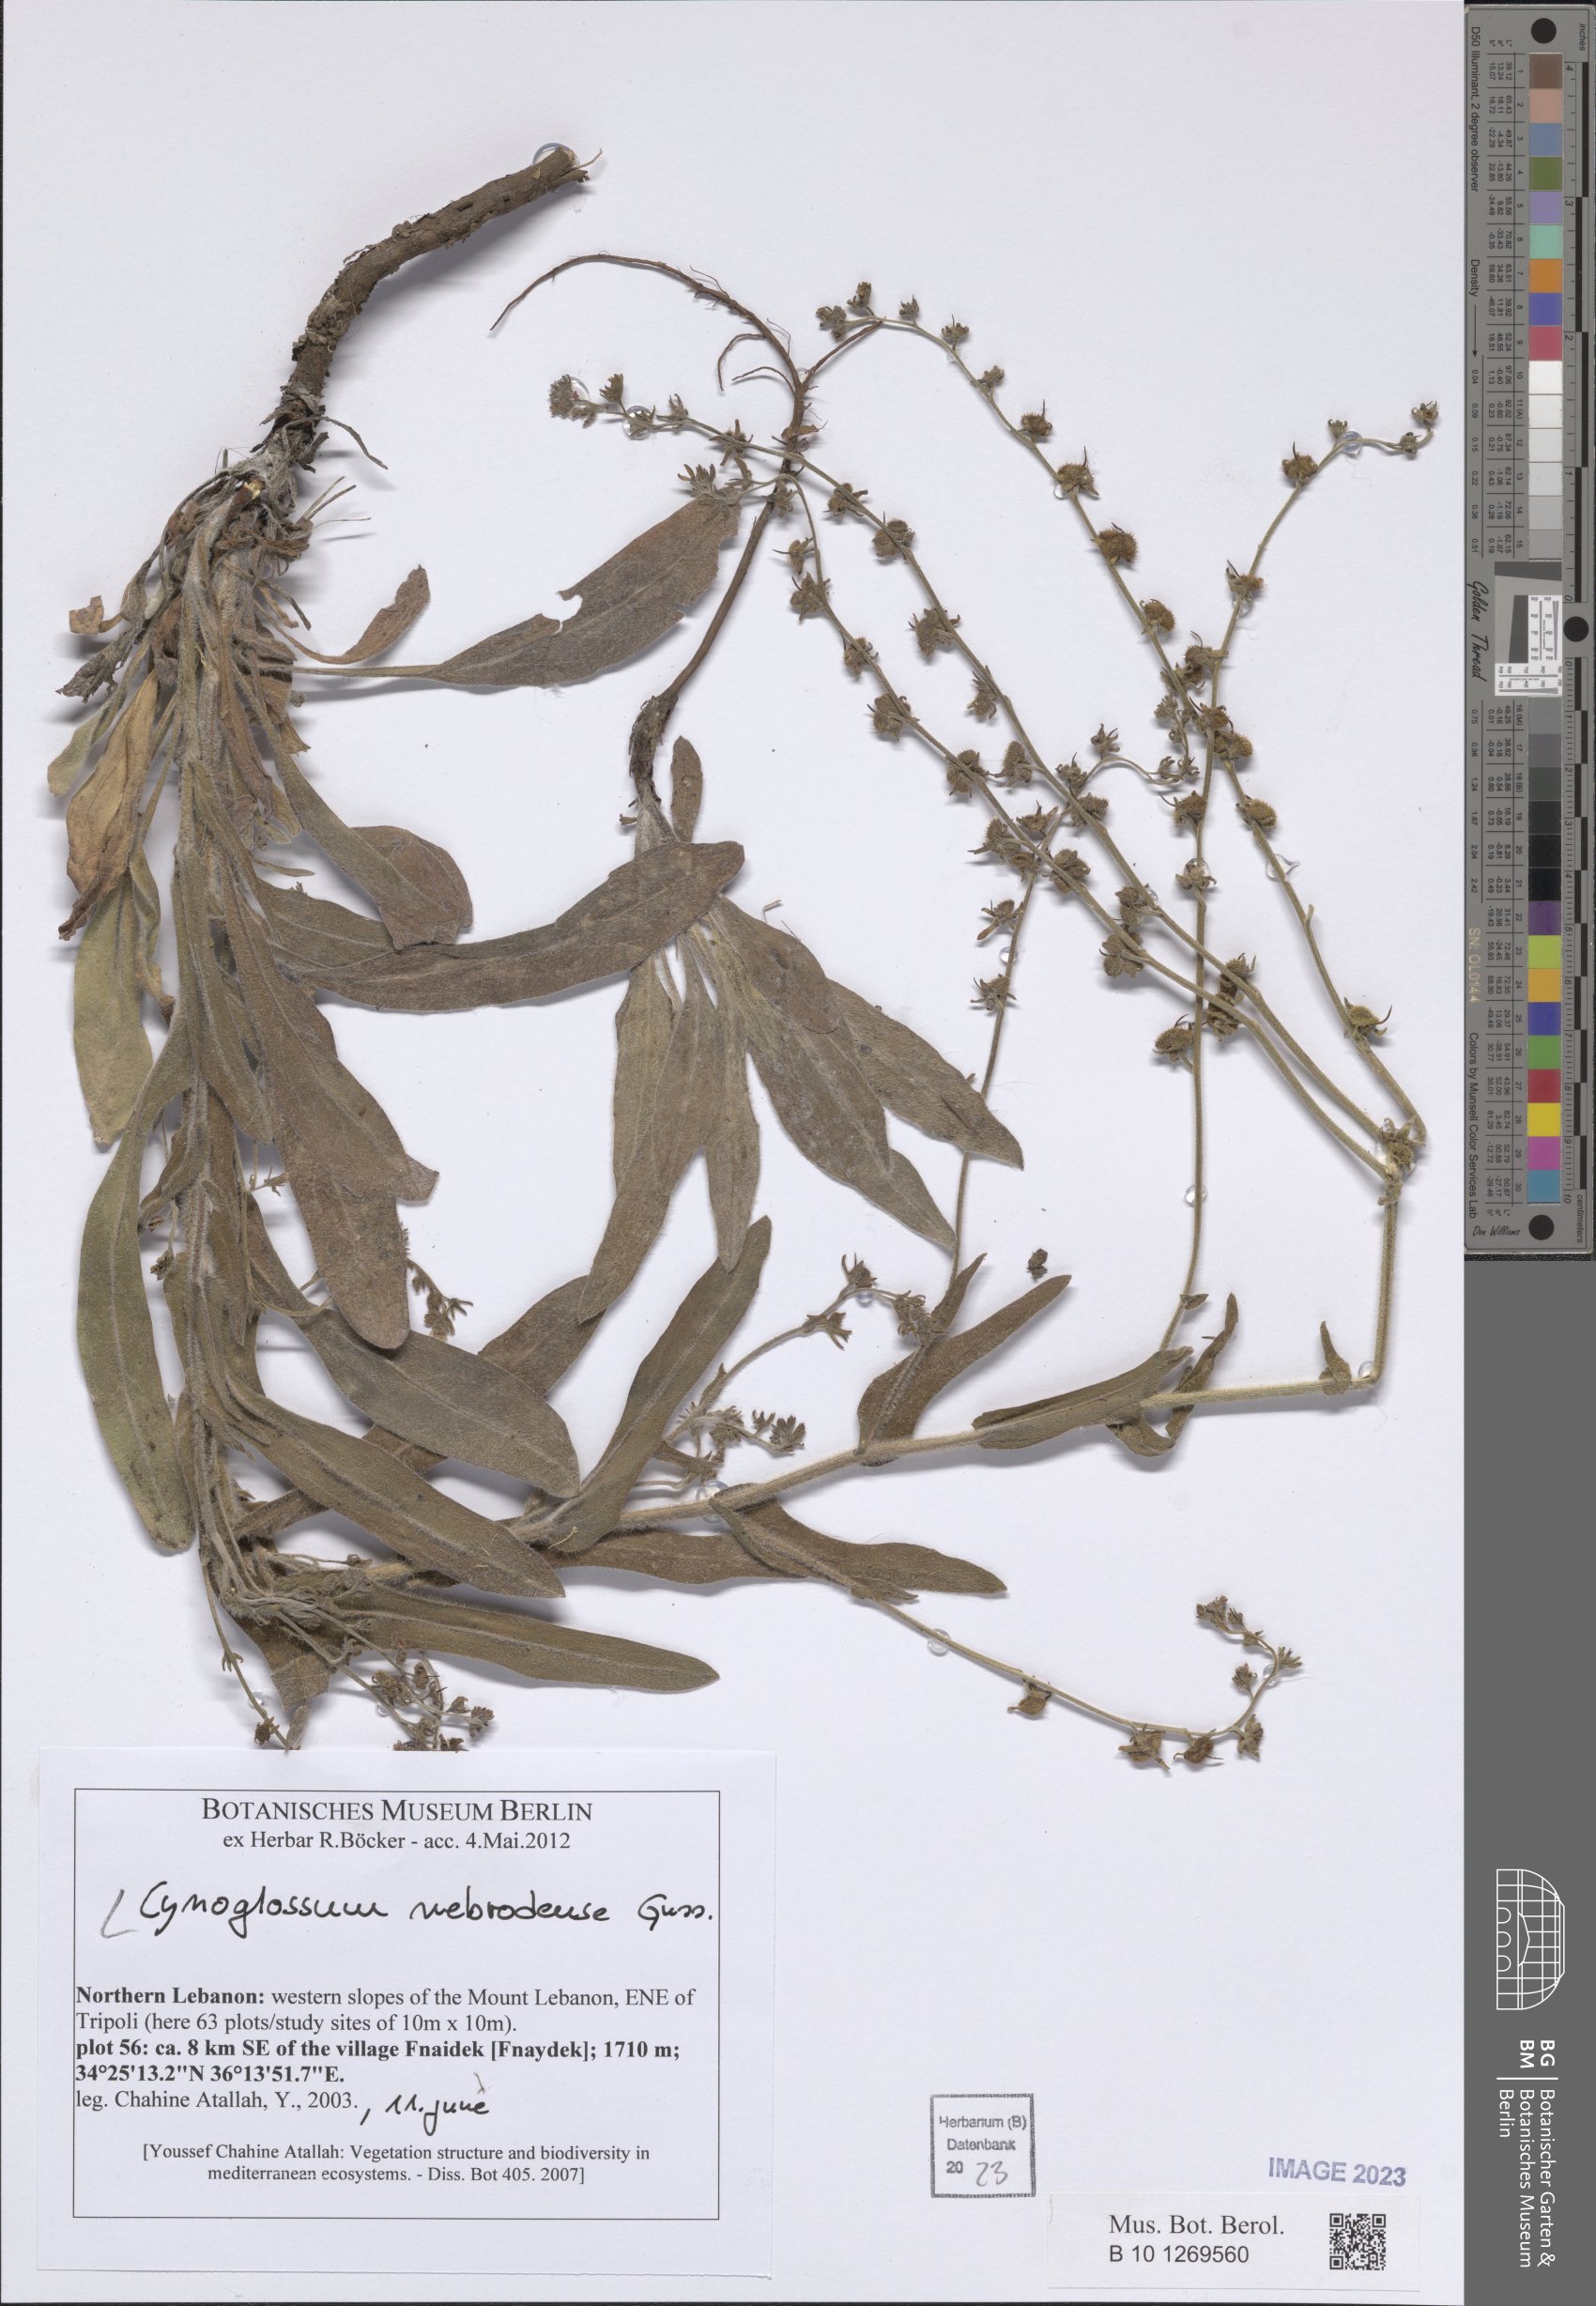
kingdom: Plantae
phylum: Tracheophyta
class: Magnoliopsida
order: Boraginales
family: Boraginaceae
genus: Cynoglossum
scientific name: Cynoglossum nebrodense
